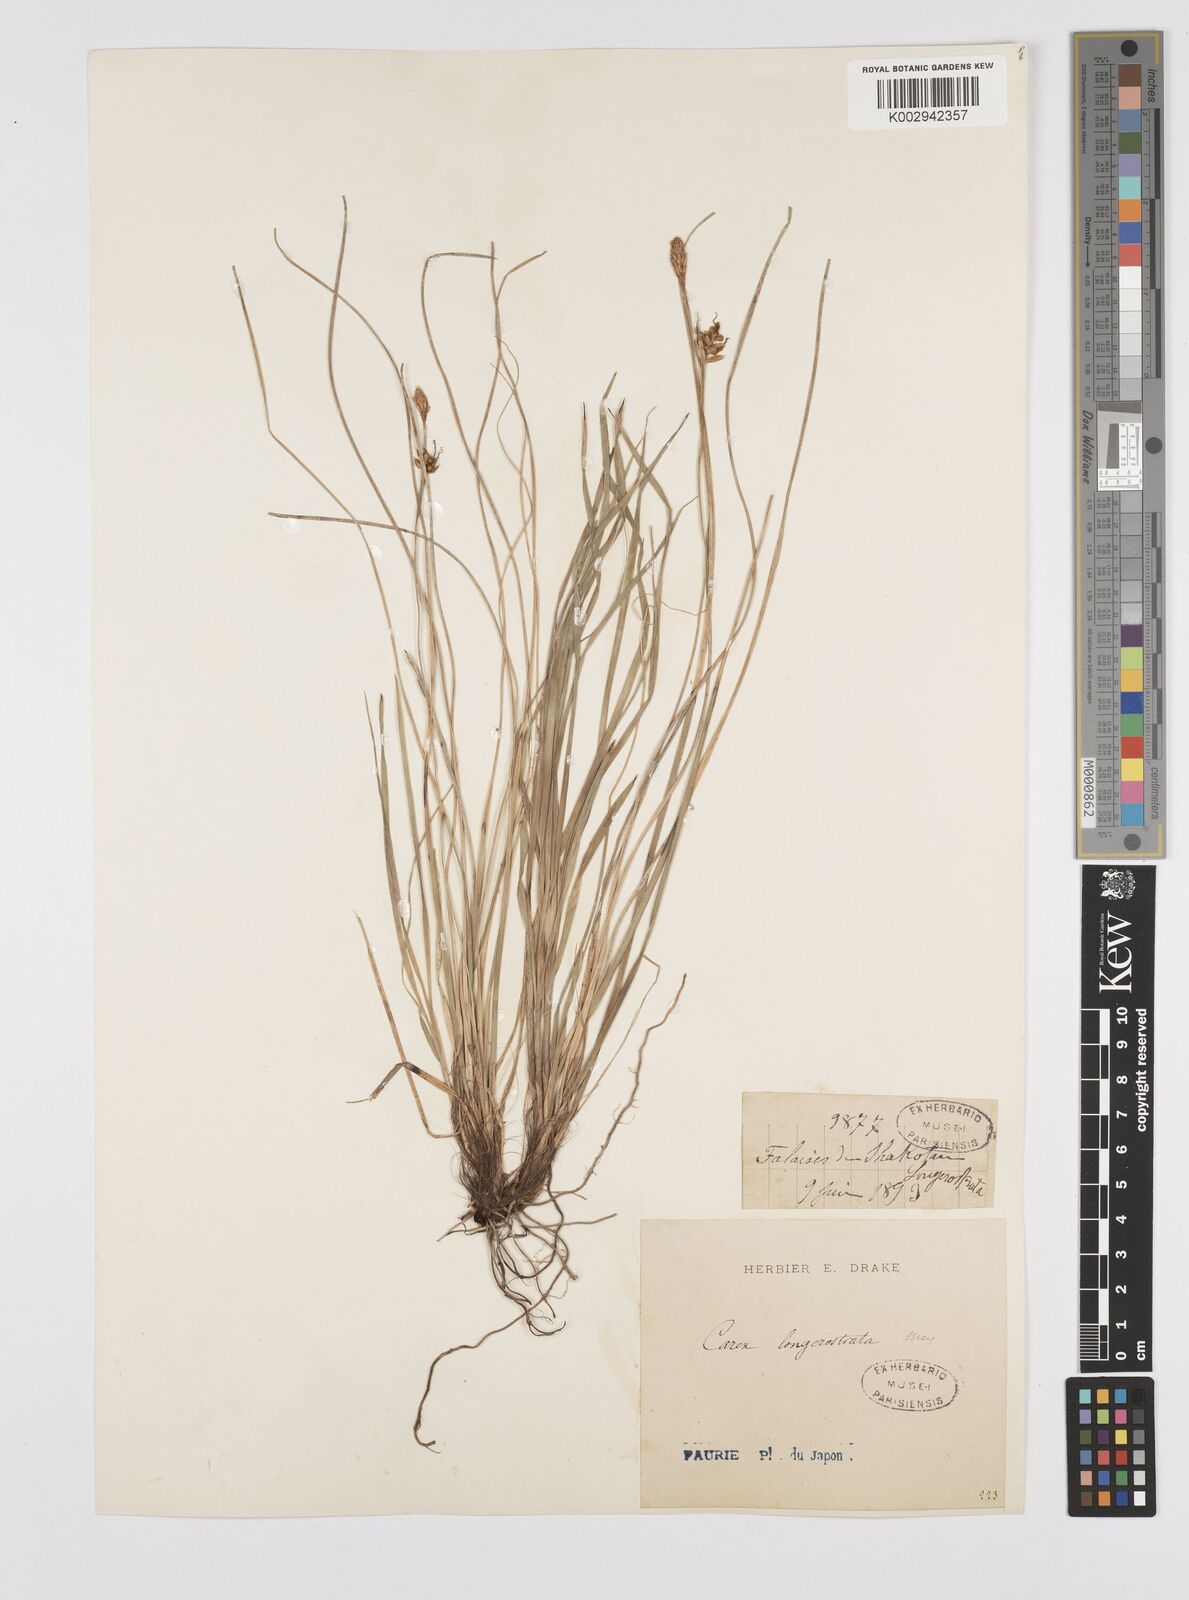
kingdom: Plantae
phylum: Tracheophyta
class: Liliopsida
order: Poales
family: Cyperaceae
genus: Carex
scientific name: Carex longerostrata
